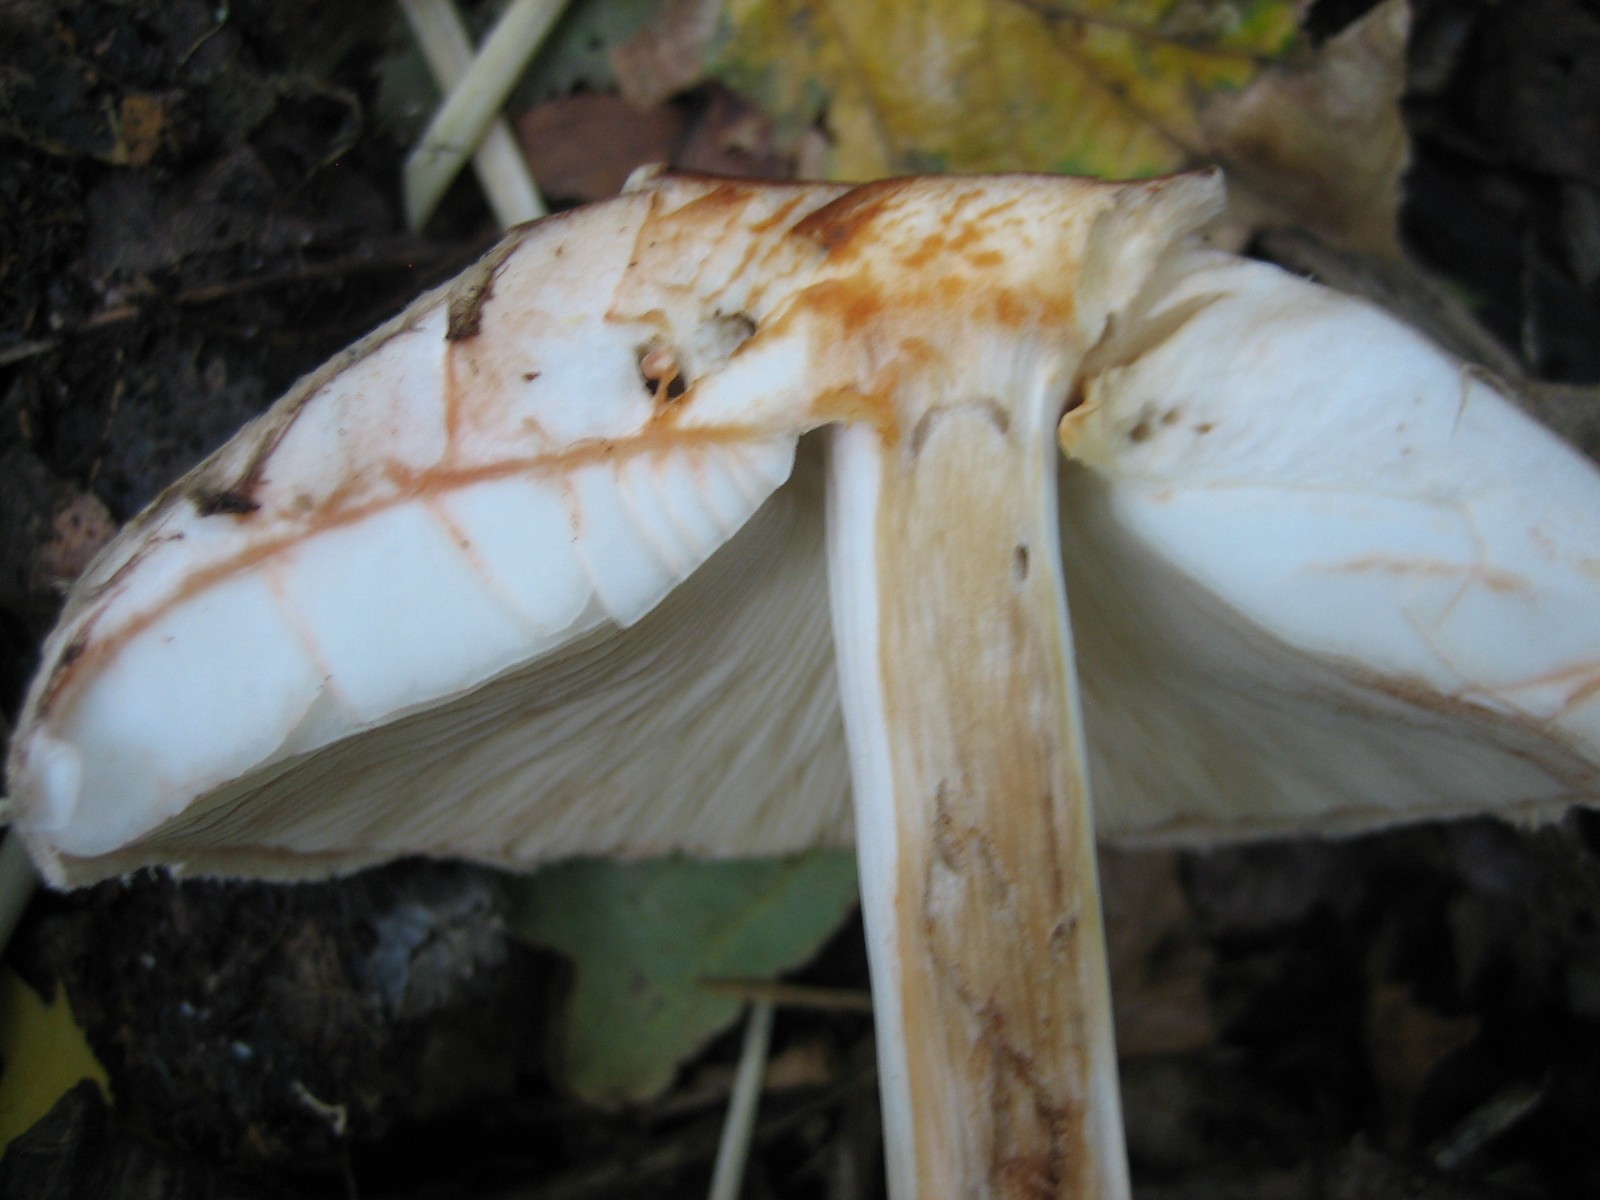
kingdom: Fungi
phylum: Basidiomycota
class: Agaricomycetes
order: Agaricales
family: Agaricaceae
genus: Chlorophyllum
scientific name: Chlorophyllum olivieri
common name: almindelig rabarberhat
